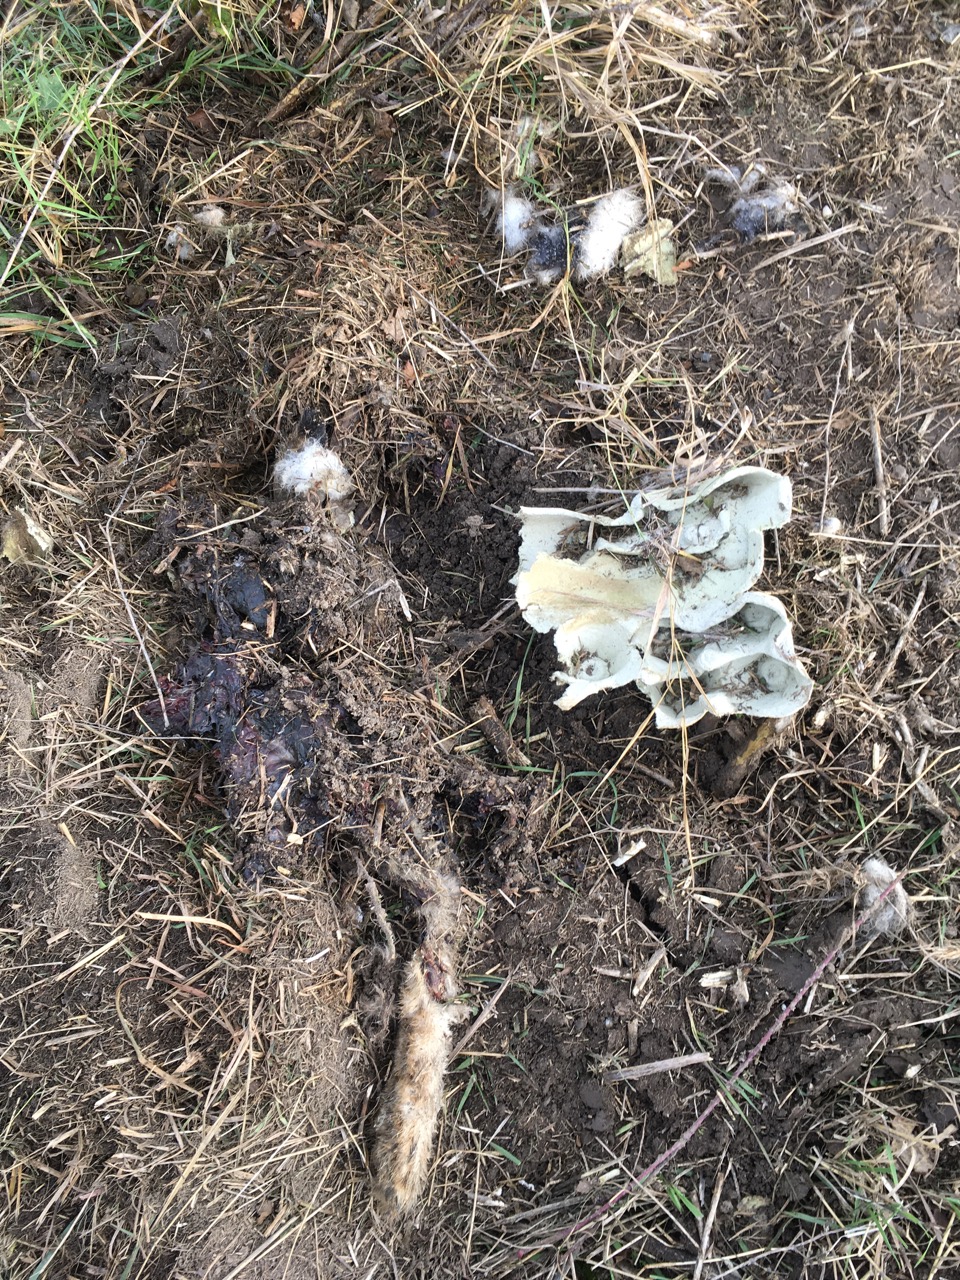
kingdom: Animalia
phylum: Chordata
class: Mammalia
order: Lagomorpha
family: Leporidae
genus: Lepus
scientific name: Lepus europaeus
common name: European hare
